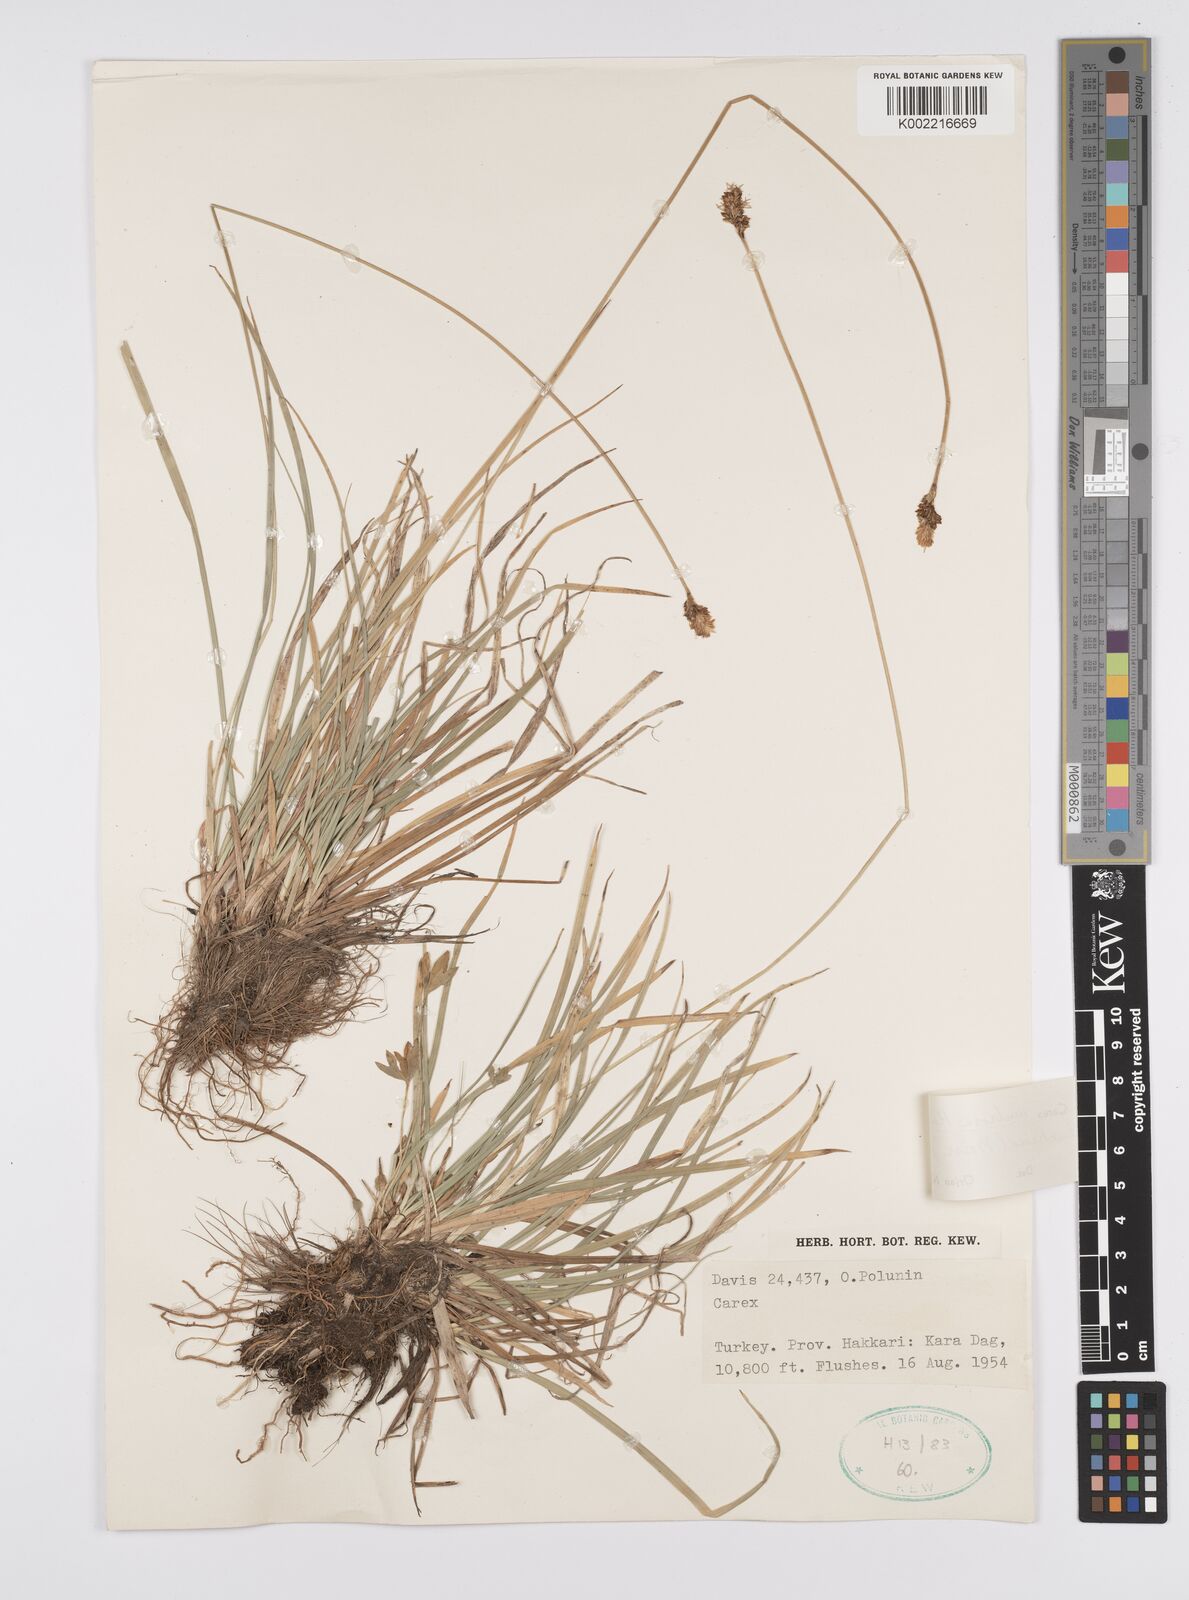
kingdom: Plantae
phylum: Tracheophyta
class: Liliopsida
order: Poales
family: Cyperaceae
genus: Carex
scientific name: Carex umbrosa
